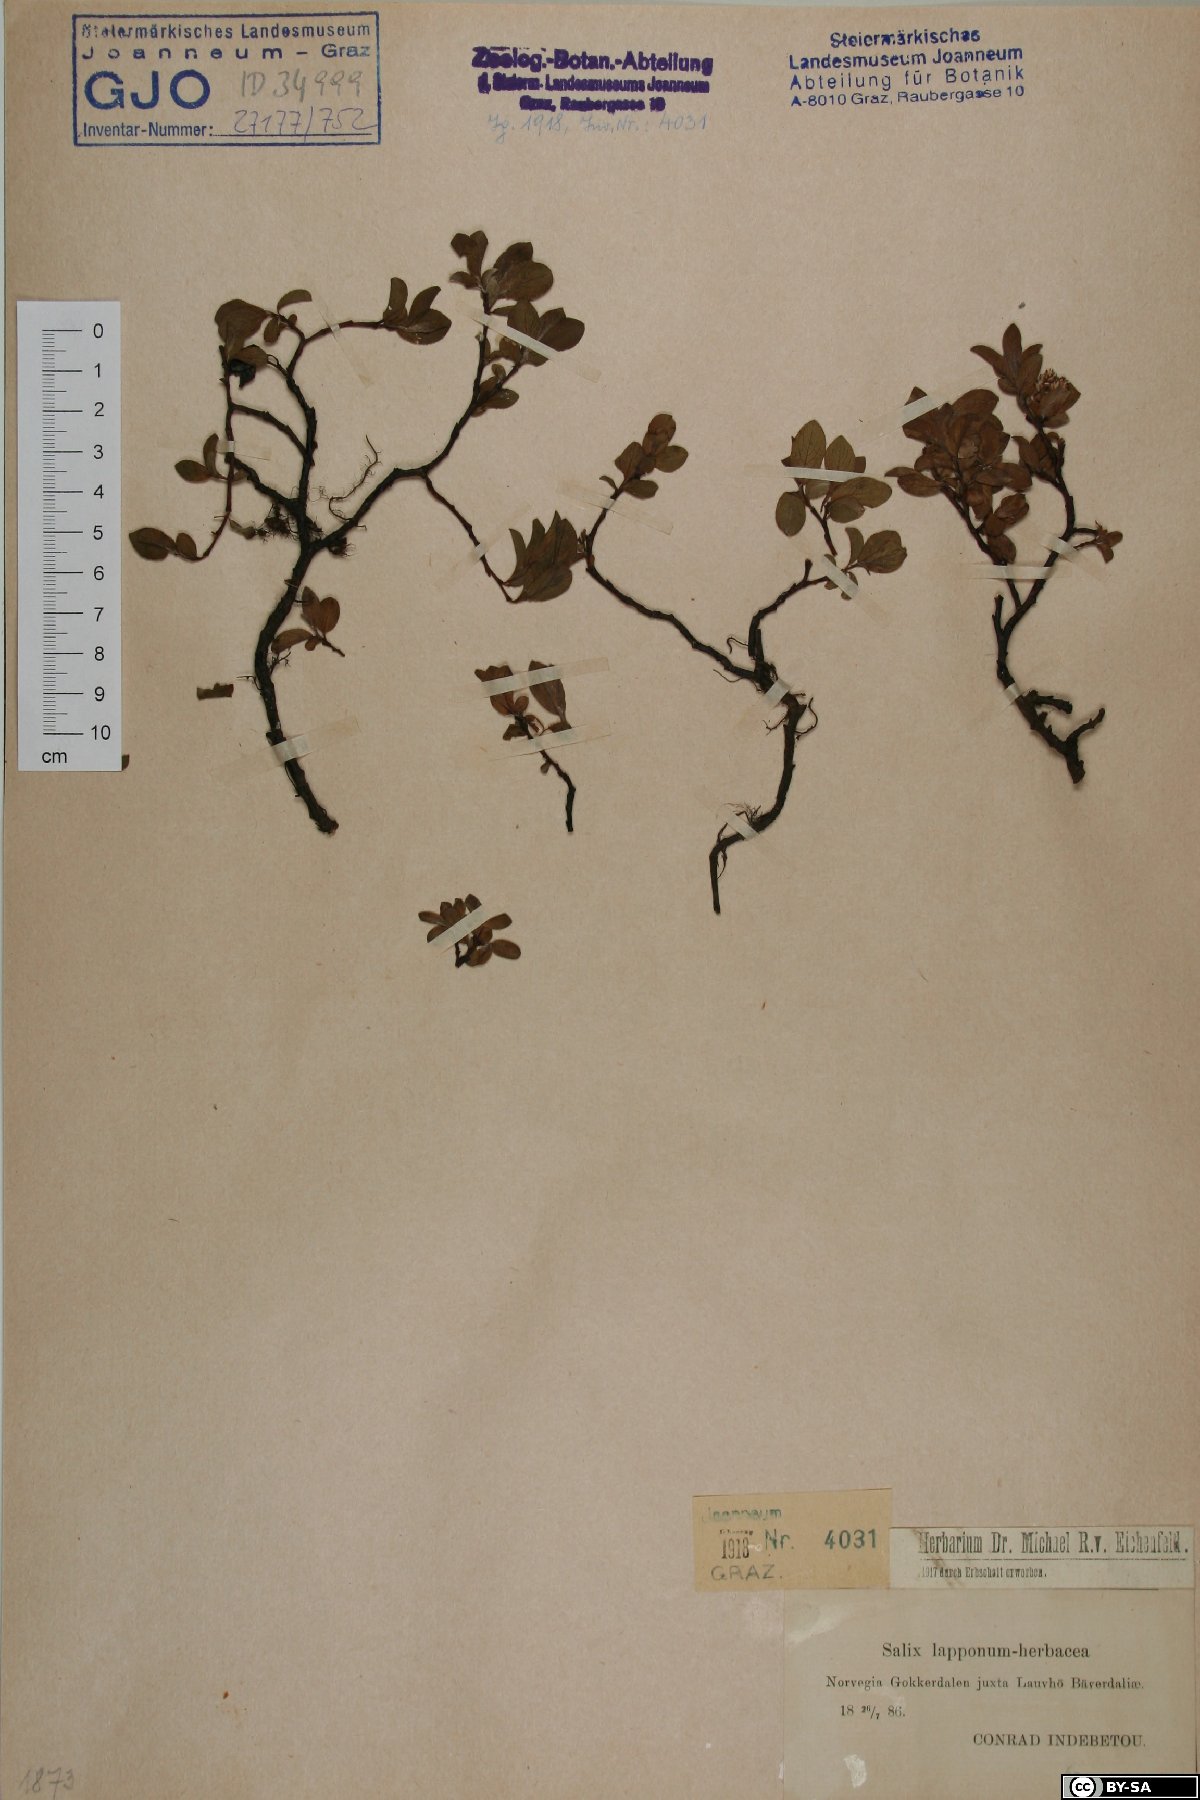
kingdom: Plantae
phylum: Tracheophyta
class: Magnoliopsida
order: Malpighiales
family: Salicaceae
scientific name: Salicaceae
